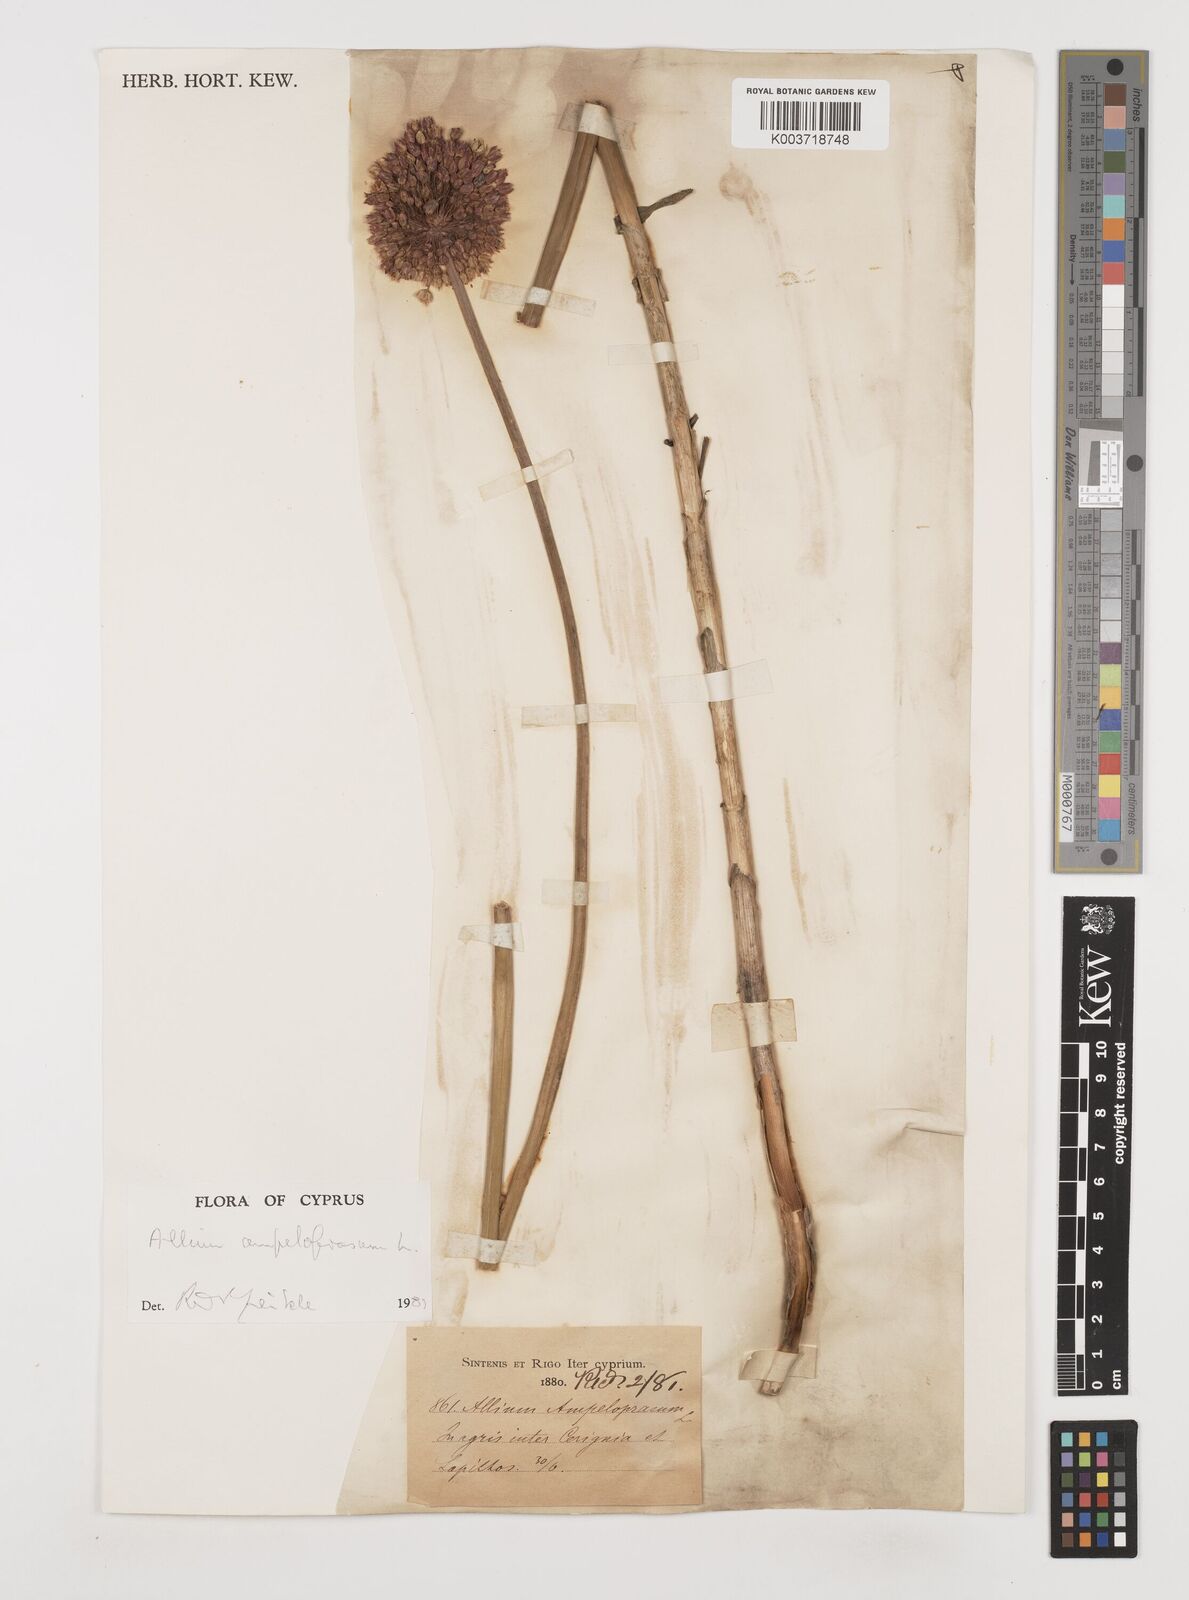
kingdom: Plantae
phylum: Tracheophyta
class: Liliopsida
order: Asparagales
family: Amaryllidaceae
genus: Allium
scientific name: Allium rotundum
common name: Sand leek
